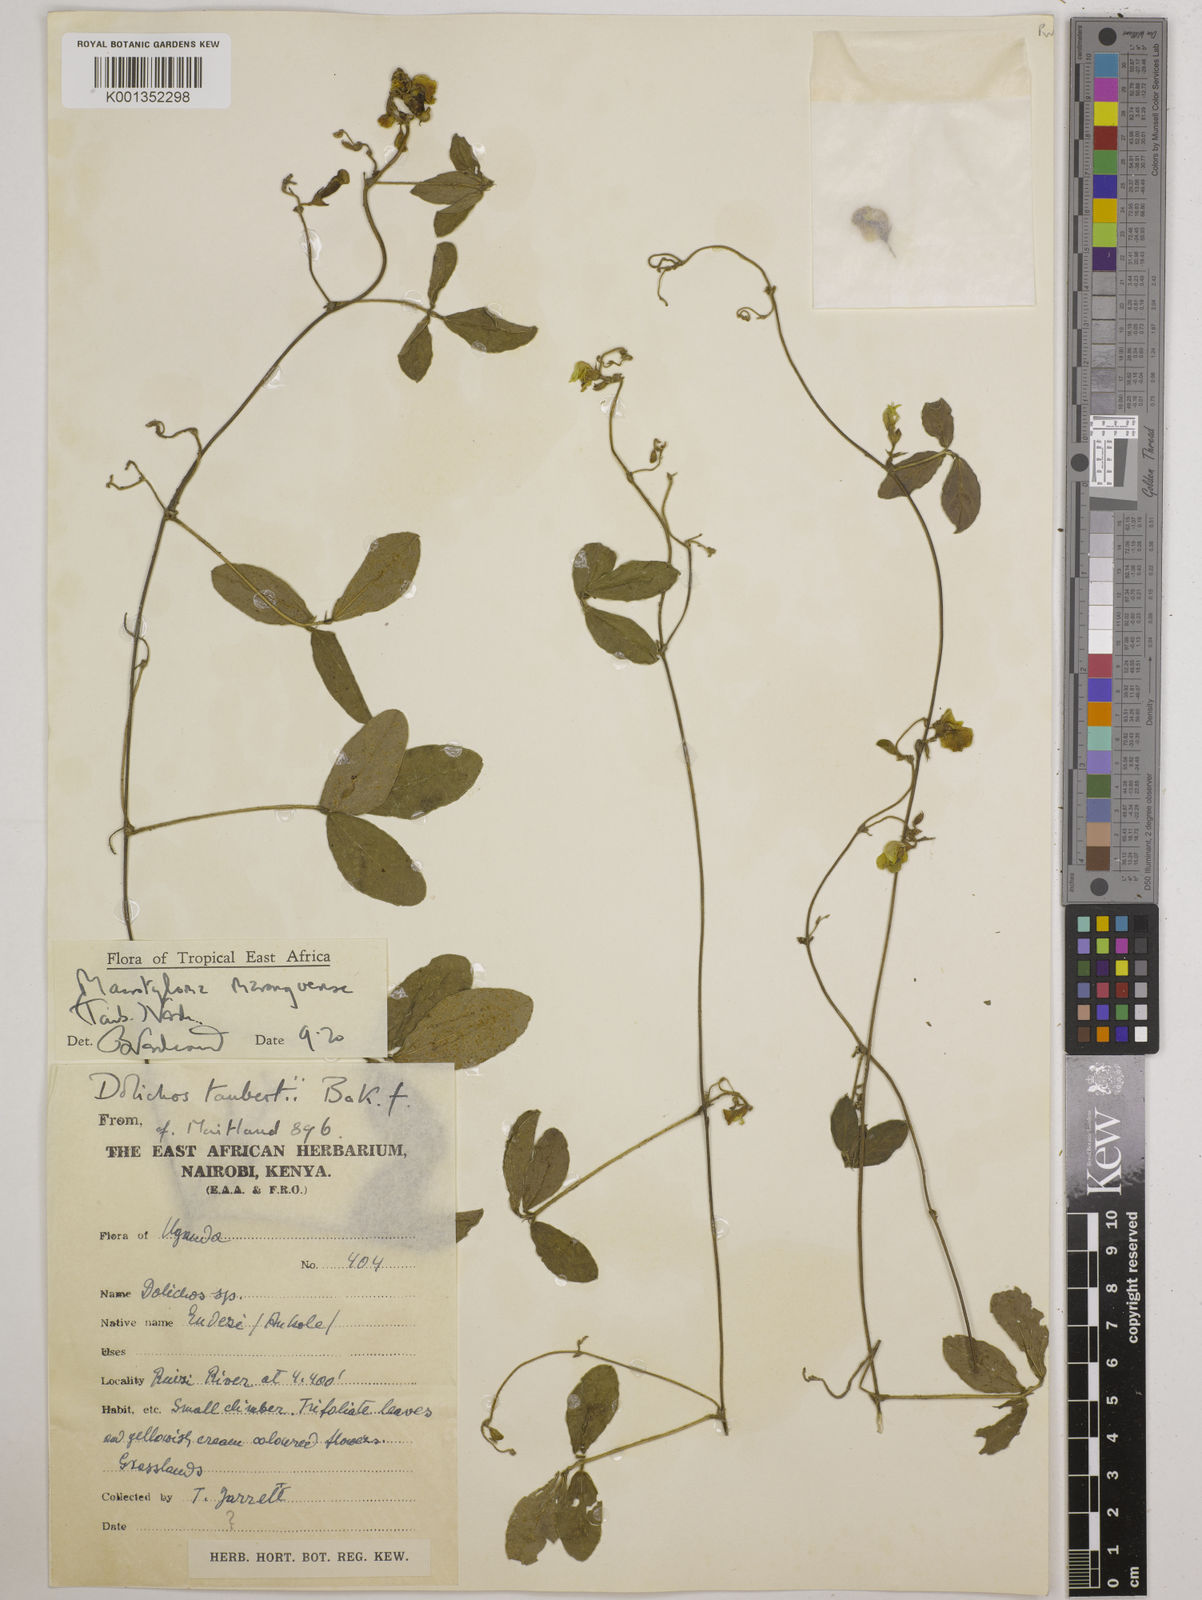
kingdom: Plantae
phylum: Tracheophyta
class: Magnoliopsida
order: Fabales
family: Fabaceae
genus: Macrotyloma
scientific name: Macrotyloma maranguense
